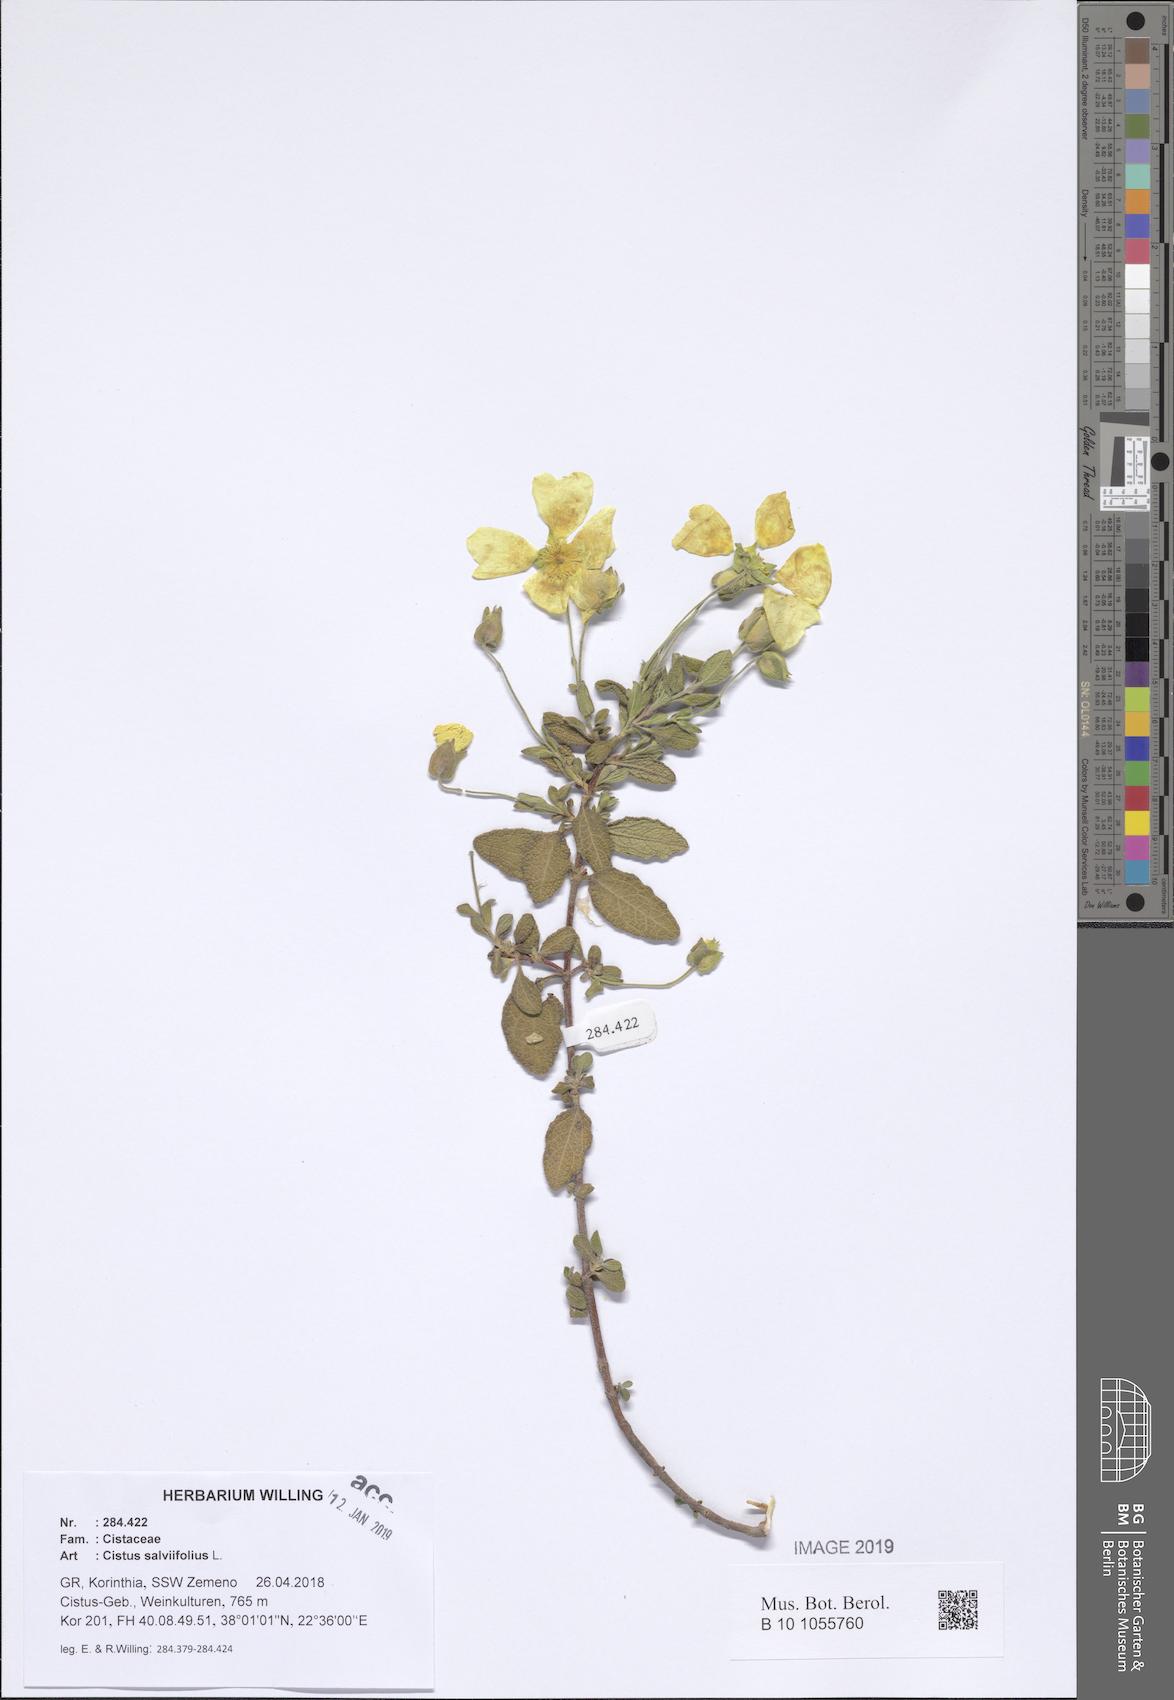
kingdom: Plantae
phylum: Tracheophyta
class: Magnoliopsida
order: Malvales
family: Cistaceae
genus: Cistus
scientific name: Cistus salviifolius
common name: Salvia cistus
